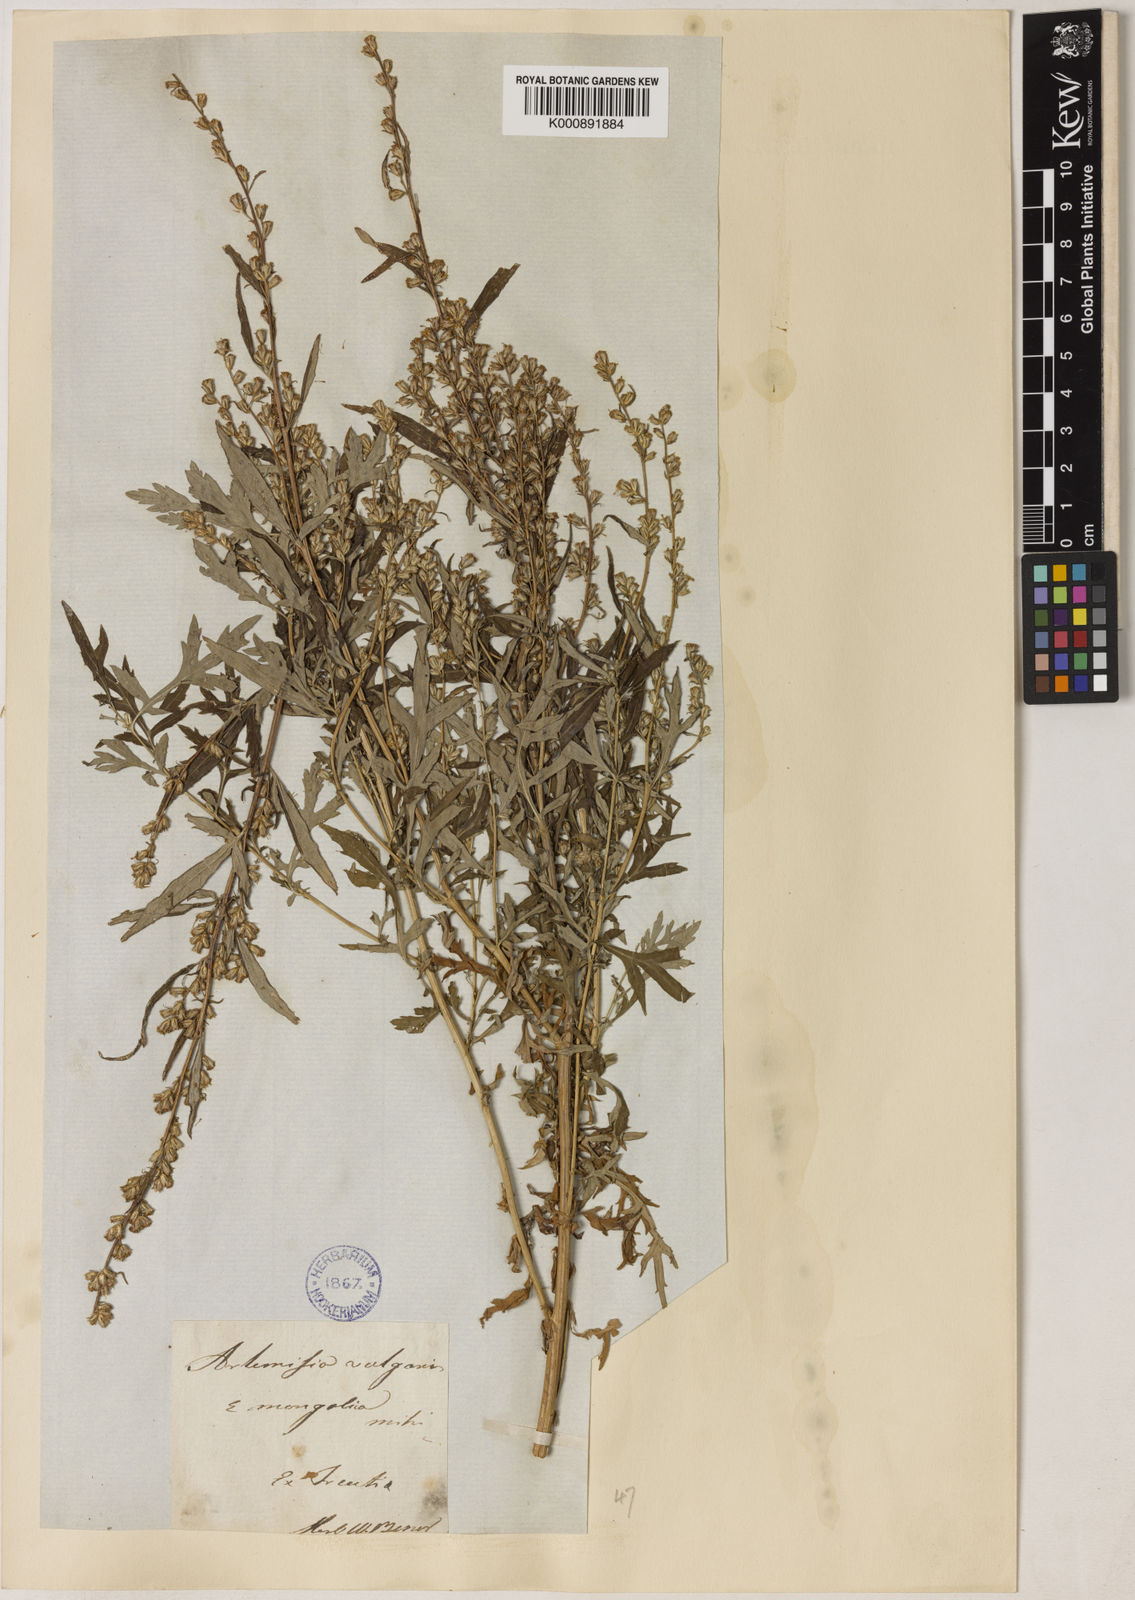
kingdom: Plantae
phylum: Tracheophyta
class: Magnoliopsida
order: Asterales
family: Asteraceae
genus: Artemisia
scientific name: Artemisia mongolica
